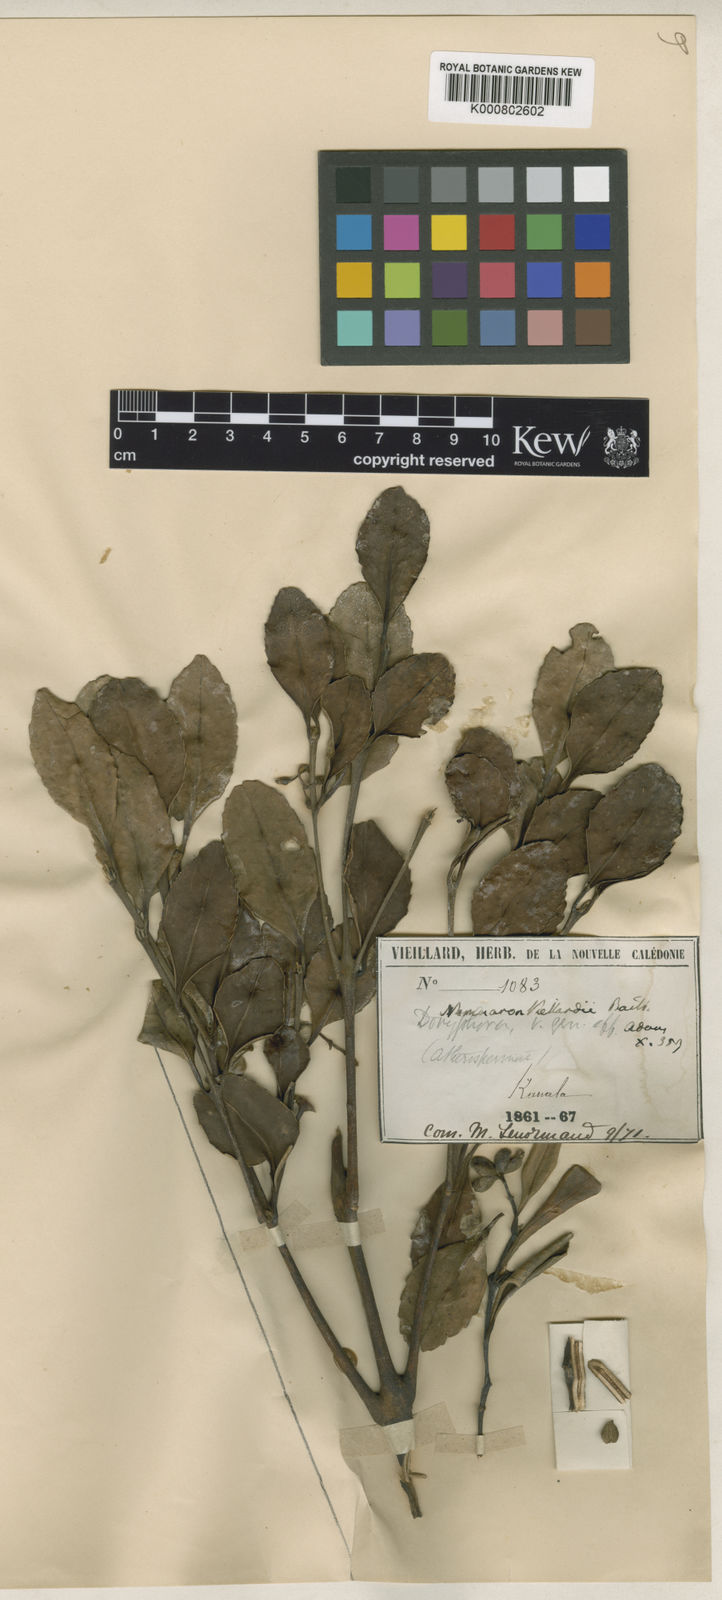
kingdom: Plantae
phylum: Tracheophyta
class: Magnoliopsida
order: Laurales
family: Atherospermataceae
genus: Nemuaron
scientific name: Nemuaron vieillardii
